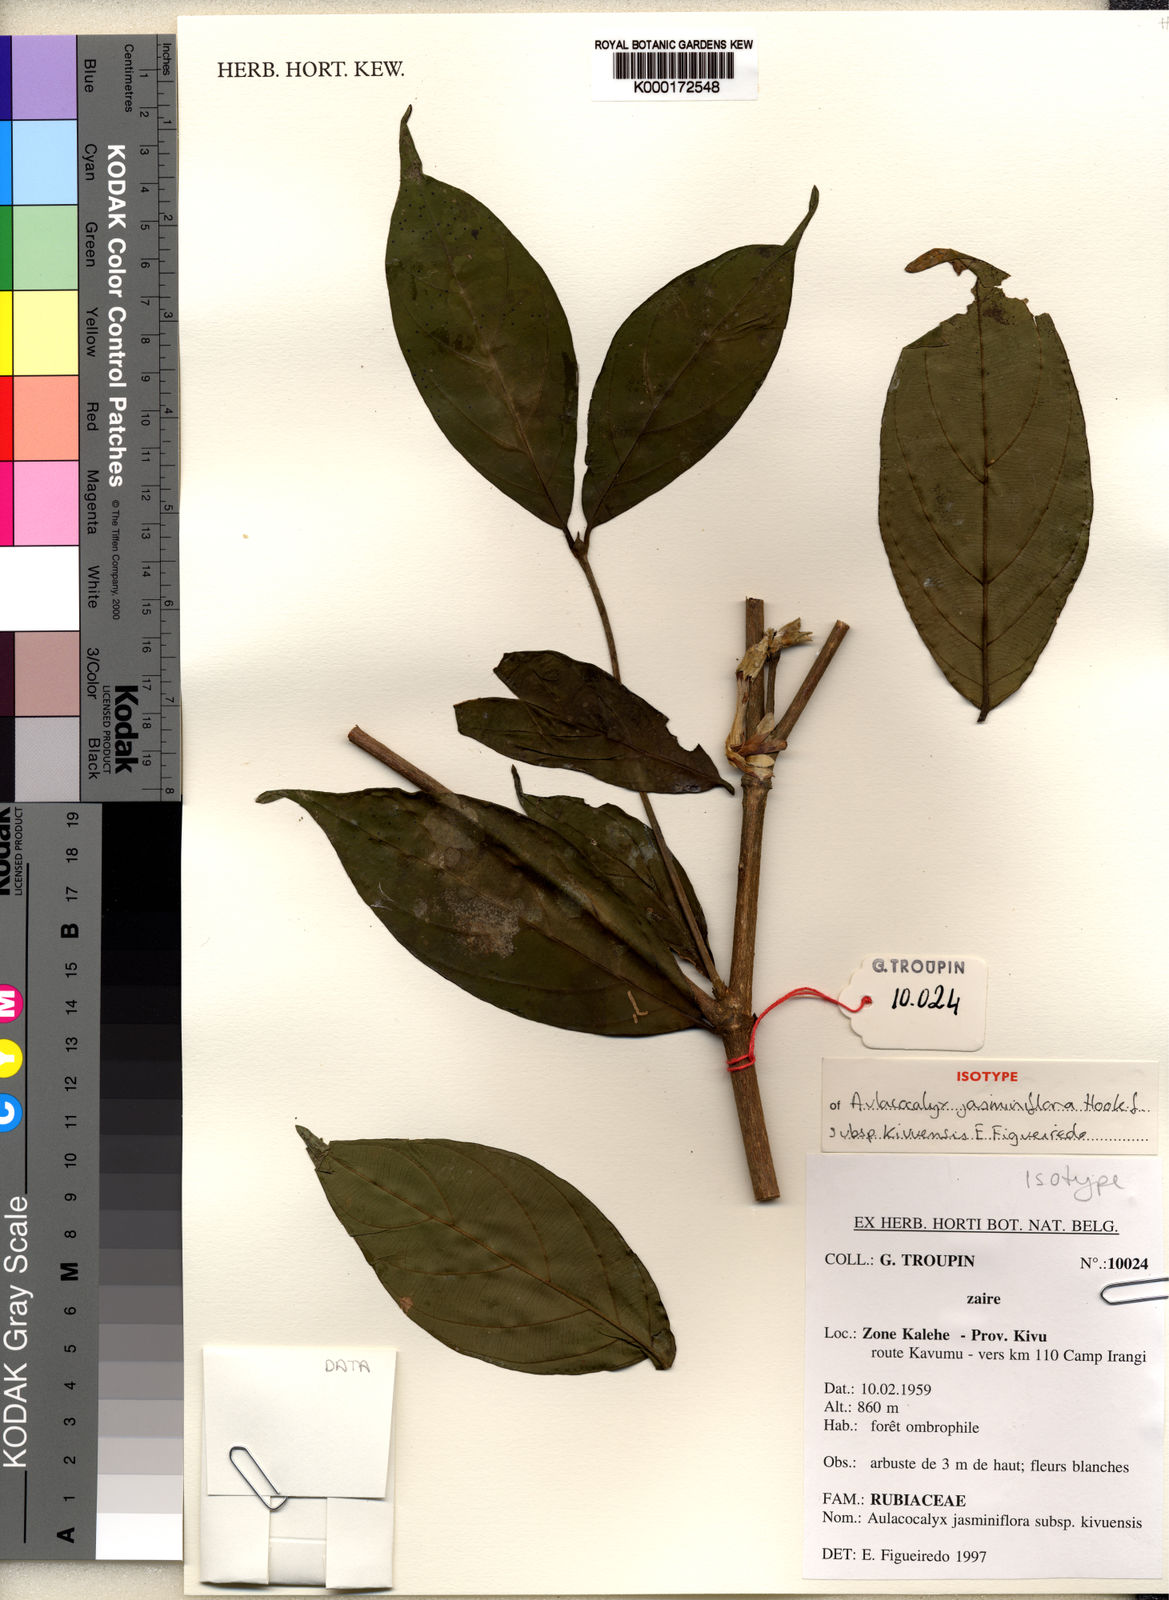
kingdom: Plantae
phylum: Tracheophyta
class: Magnoliopsida
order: Gentianales
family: Rubiaceae
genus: Aulacocalyx
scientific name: Aulacocalyx jasminiflora
